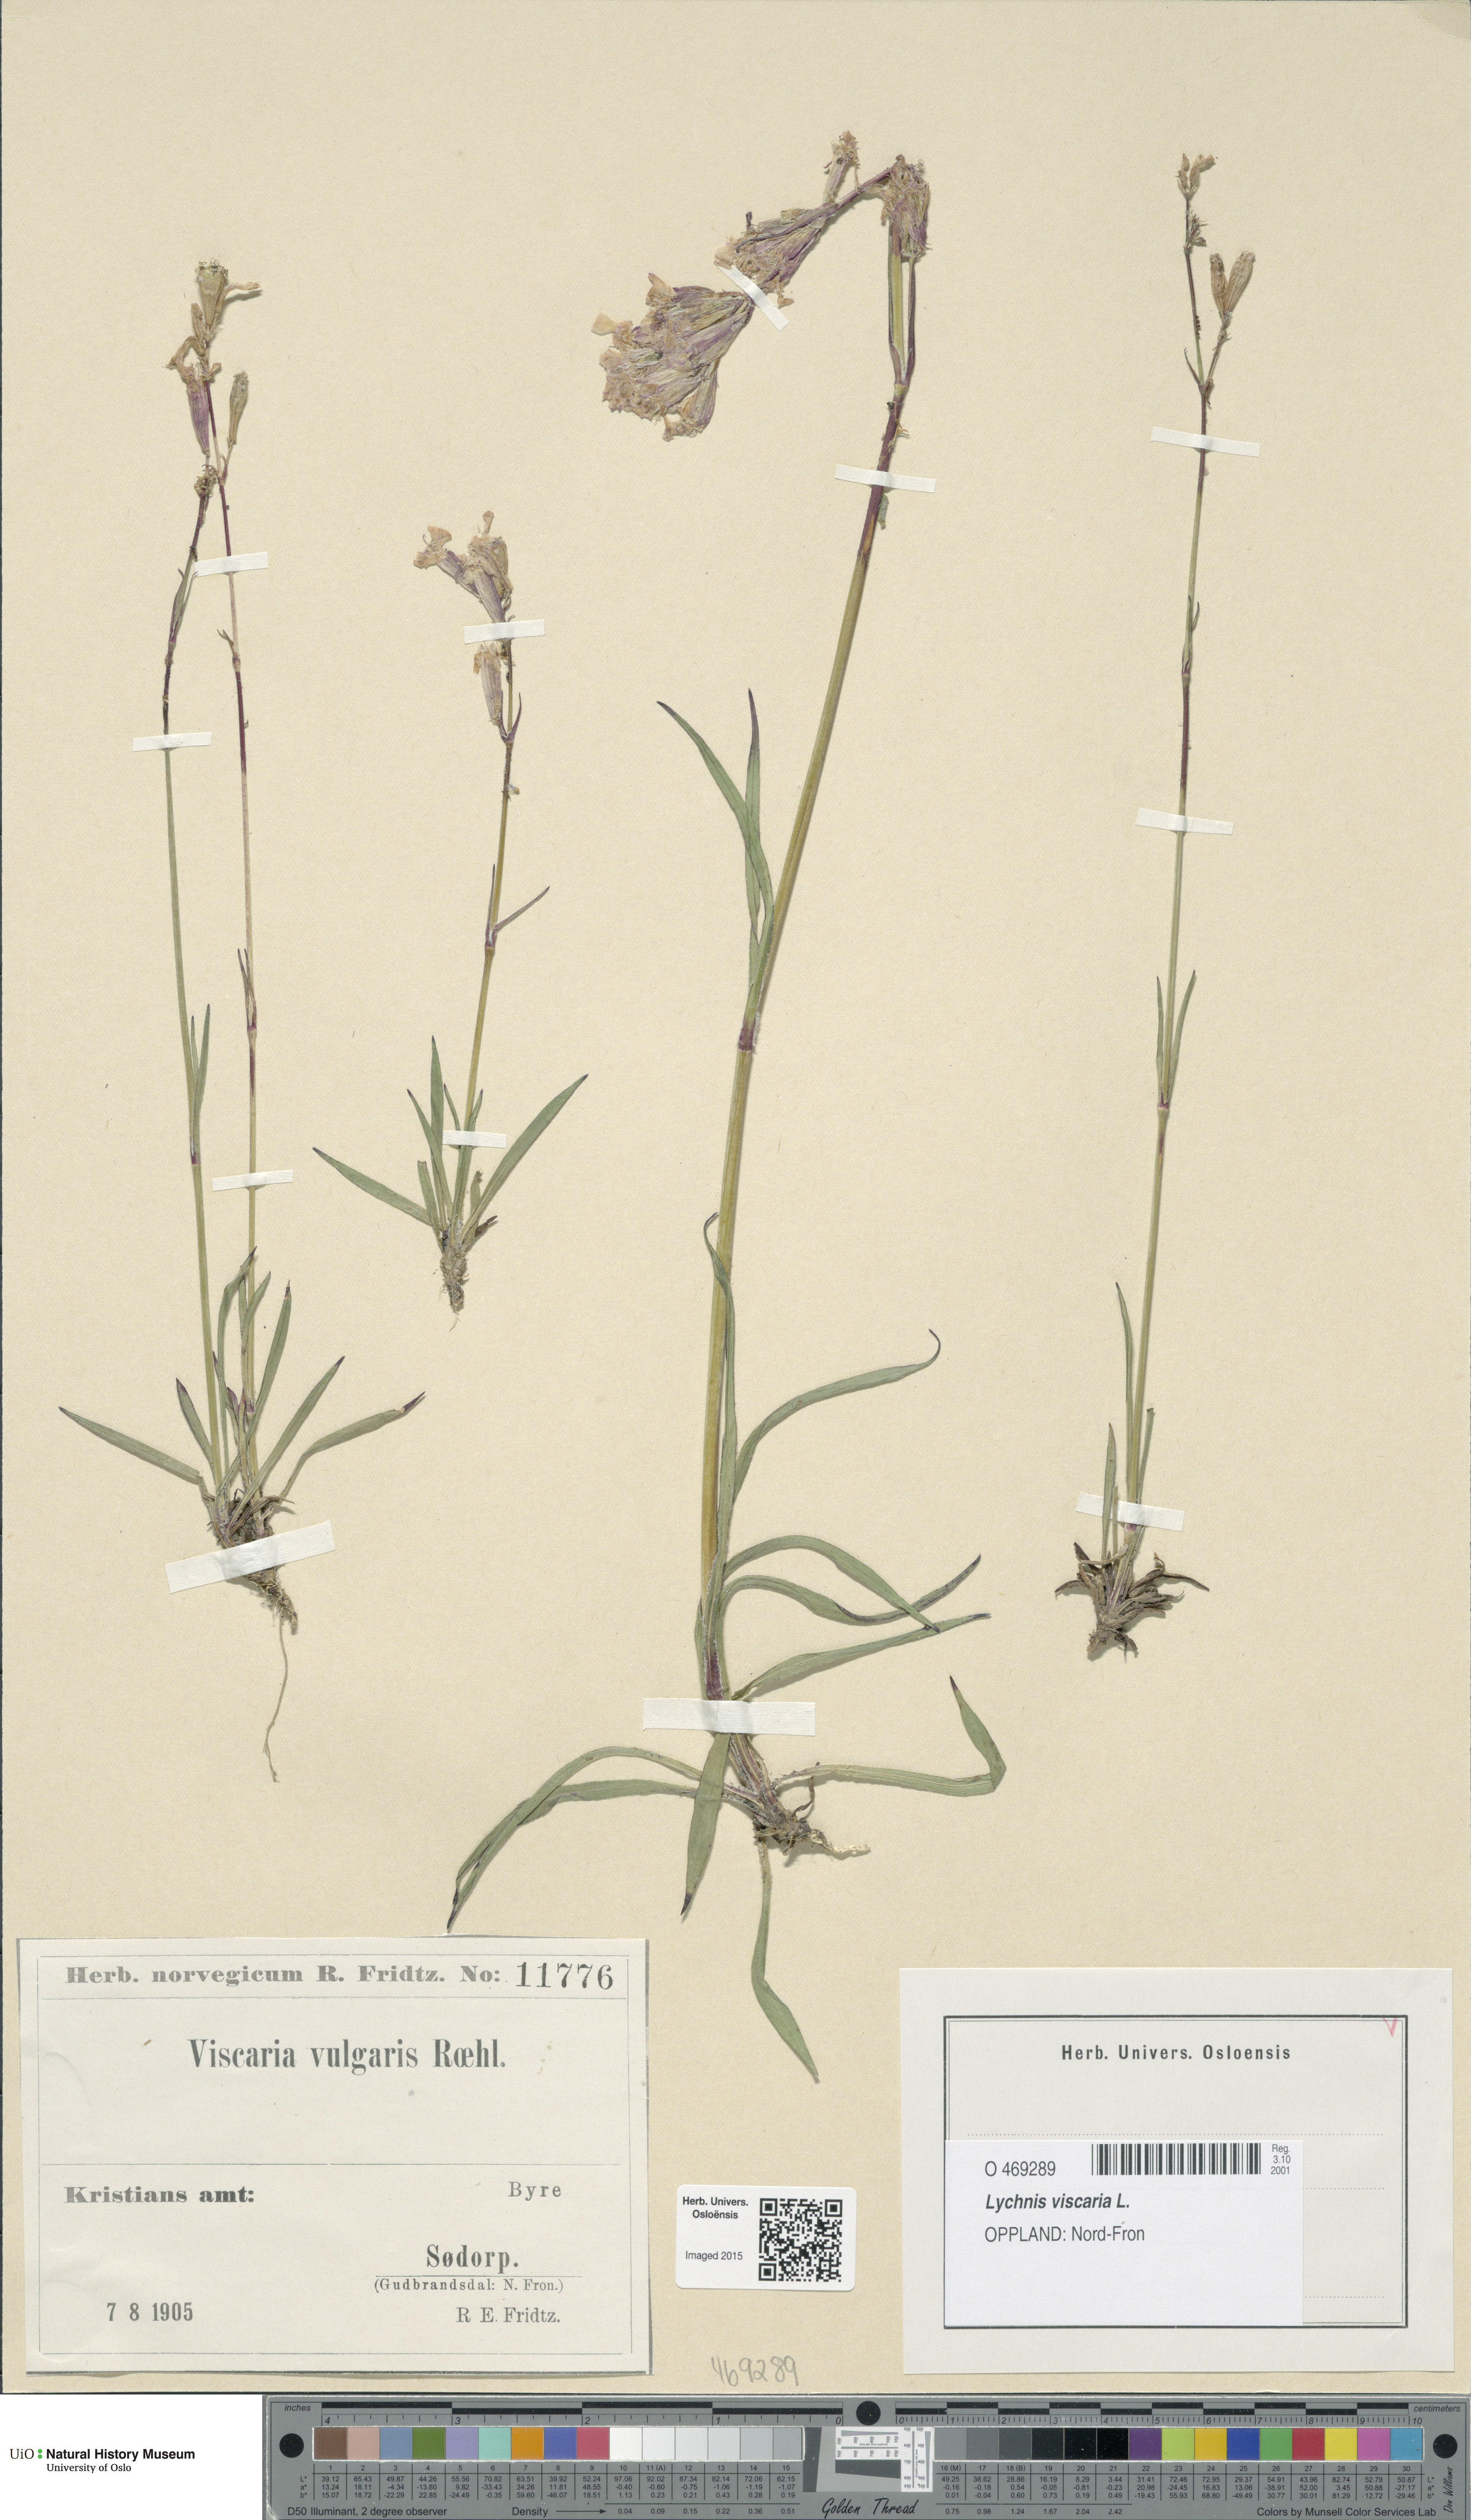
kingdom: Plantae
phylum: Tracheophyta
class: Magnoliopsida
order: Caryophyllales
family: Caryophyllaceae
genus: Viscaria
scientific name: Viscaria vulgaris
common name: Clammy campion
